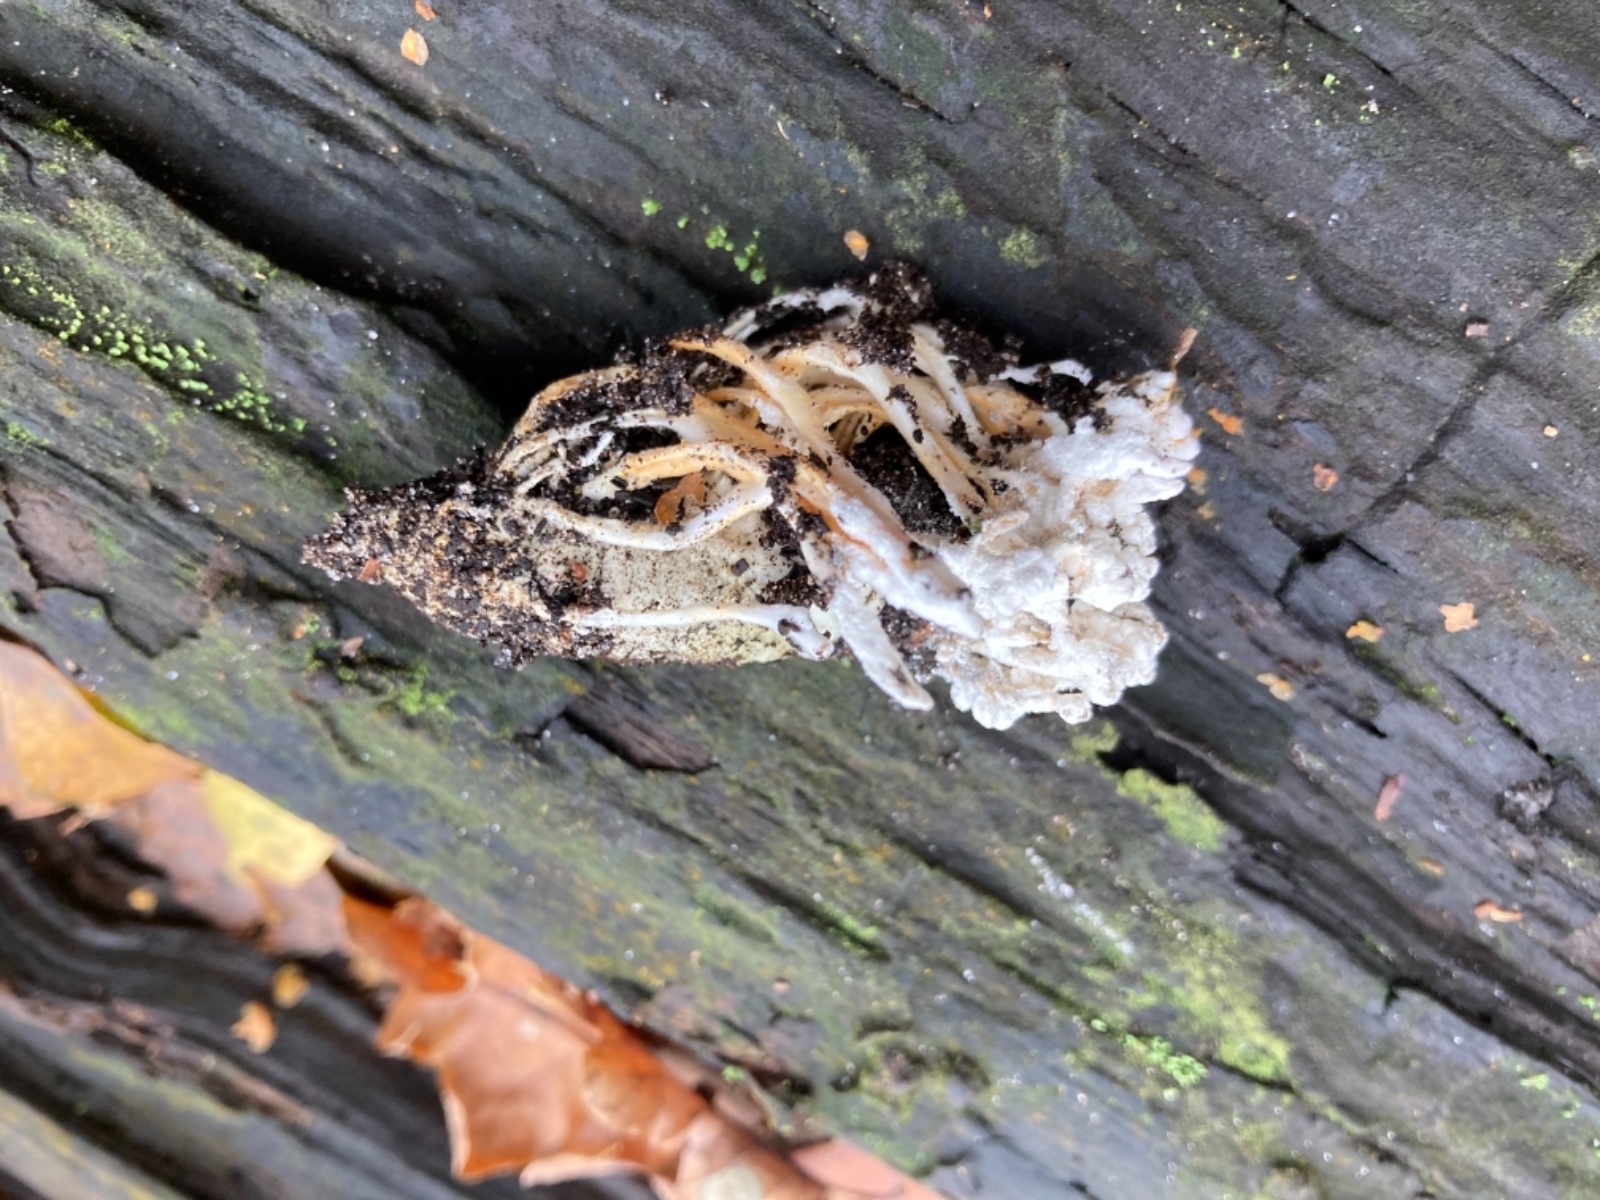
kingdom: Fungi
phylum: Ascomycota
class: Sordariomycetes
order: Hypocreales
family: Cordycipitaceae
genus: Cordyceps
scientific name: Cordyceps farinosa
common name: melet snyltekølle
